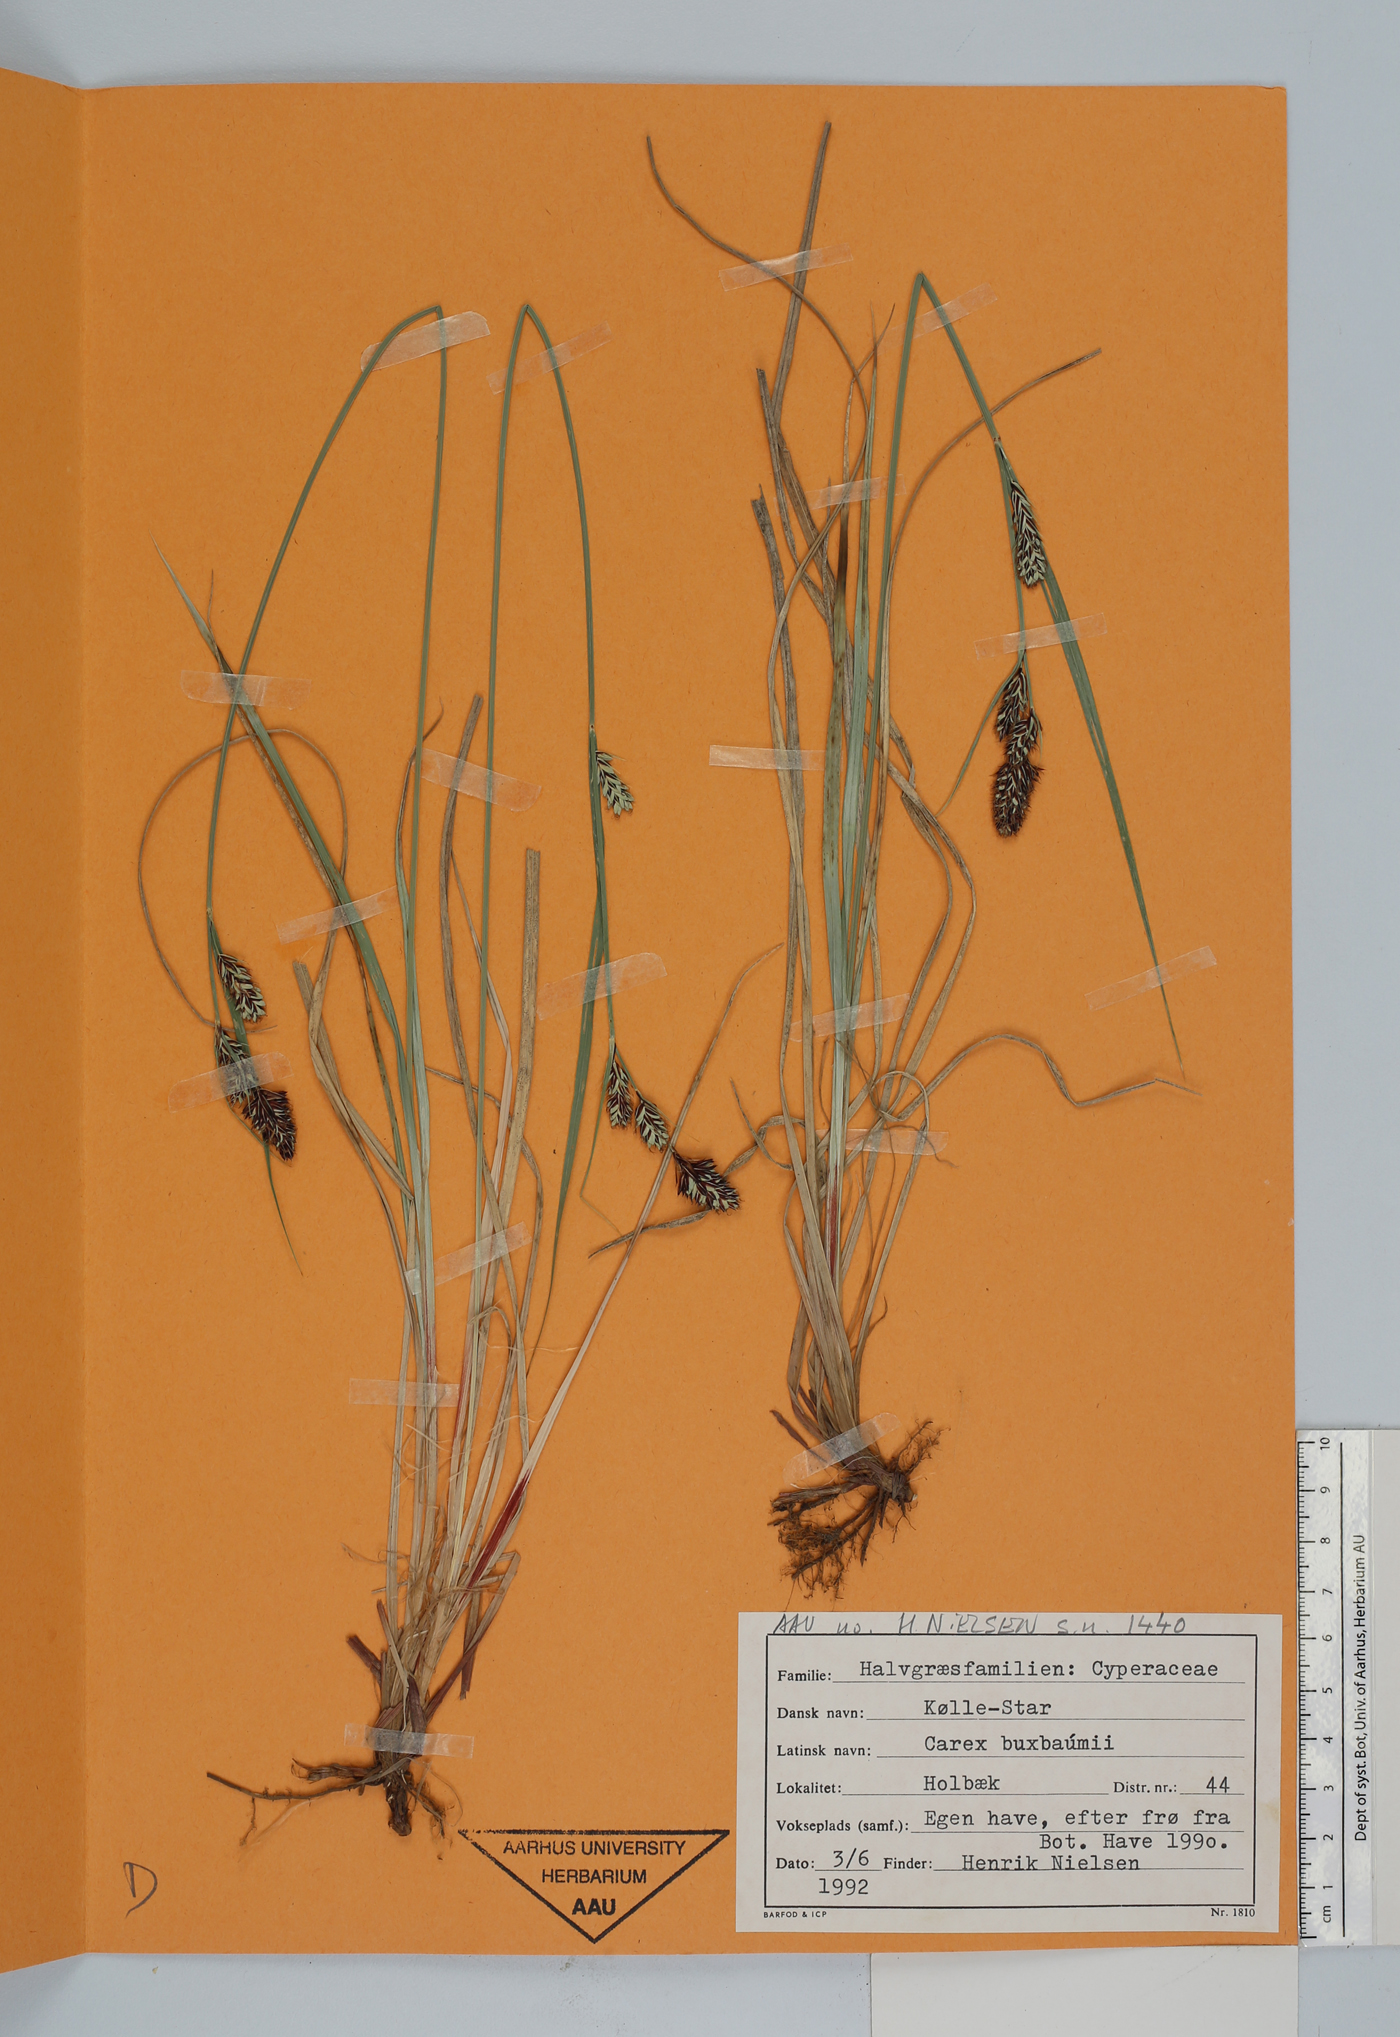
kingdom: Plantae
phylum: Tracheophyta
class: Liliopsida
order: Poales
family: Cyperaceae
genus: Carex
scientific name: Carex buxbaumii
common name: Club sedge
